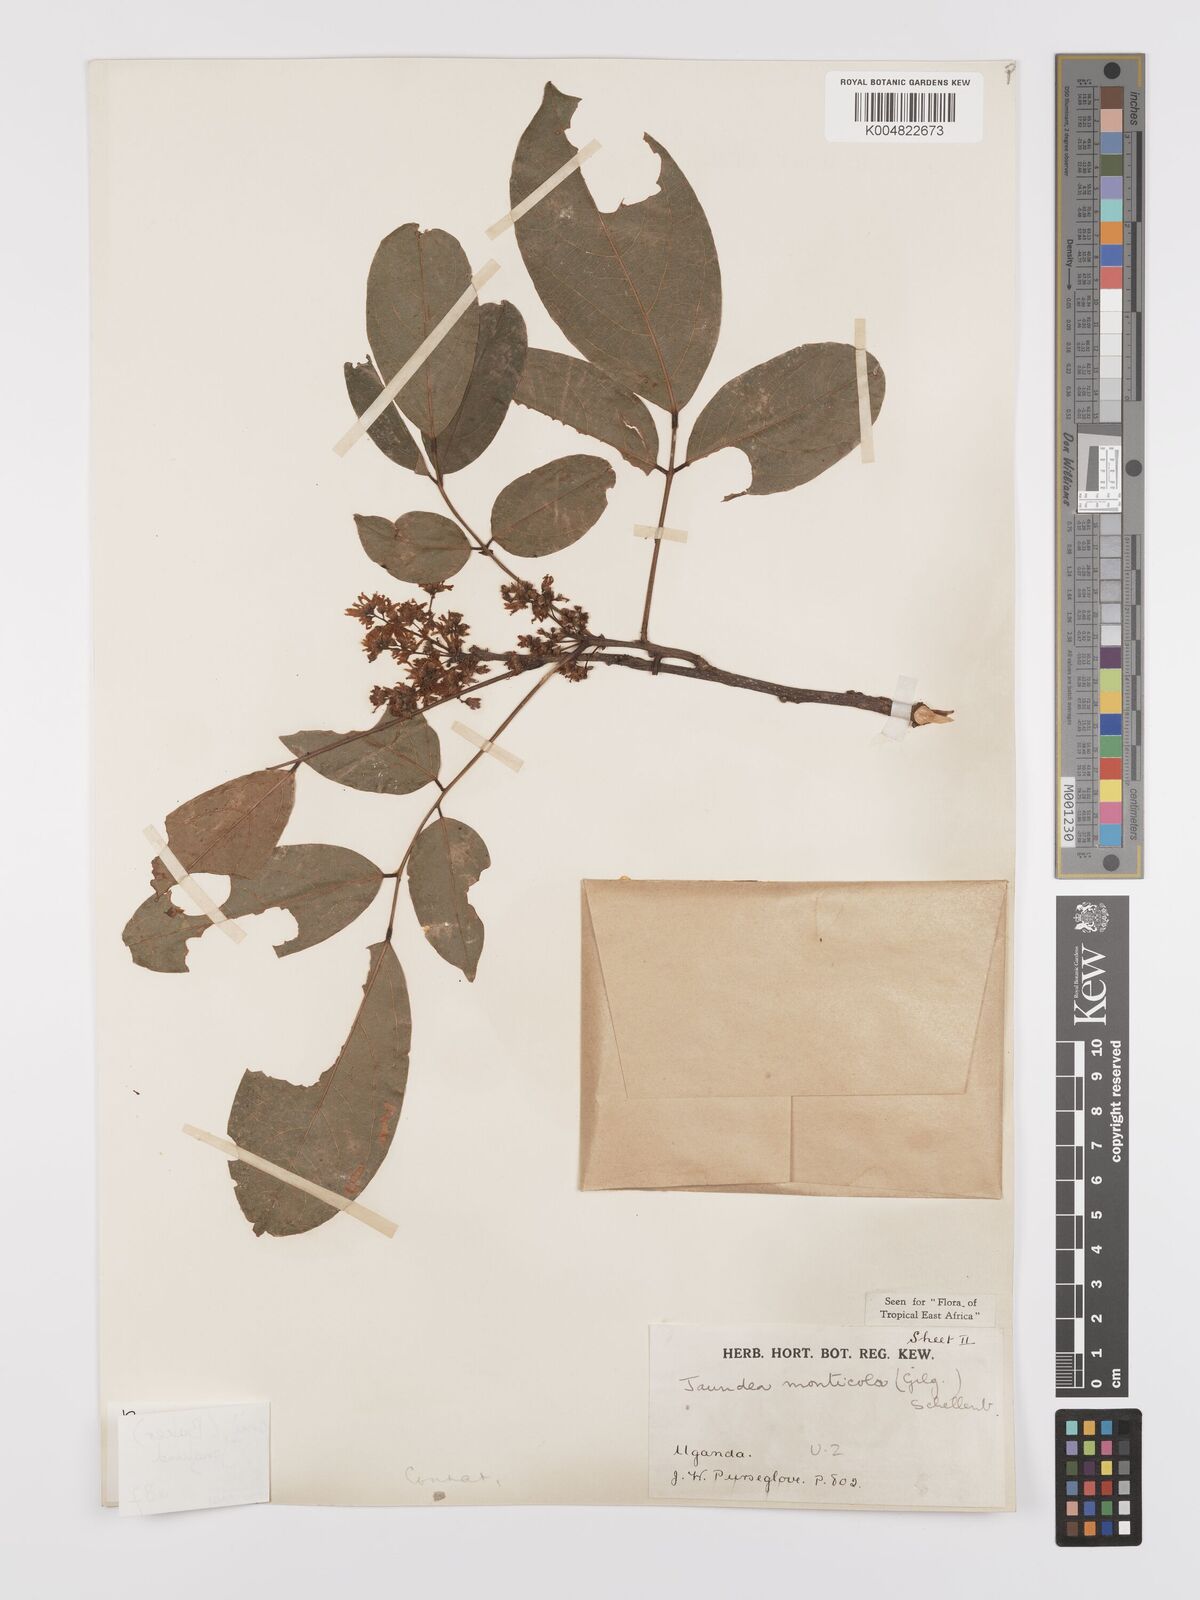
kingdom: Plantae
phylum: Tracheophyta
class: Magnoliopsida
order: Oxalidales
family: Connaraceae
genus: Rourea
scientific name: Rourea pinnata
